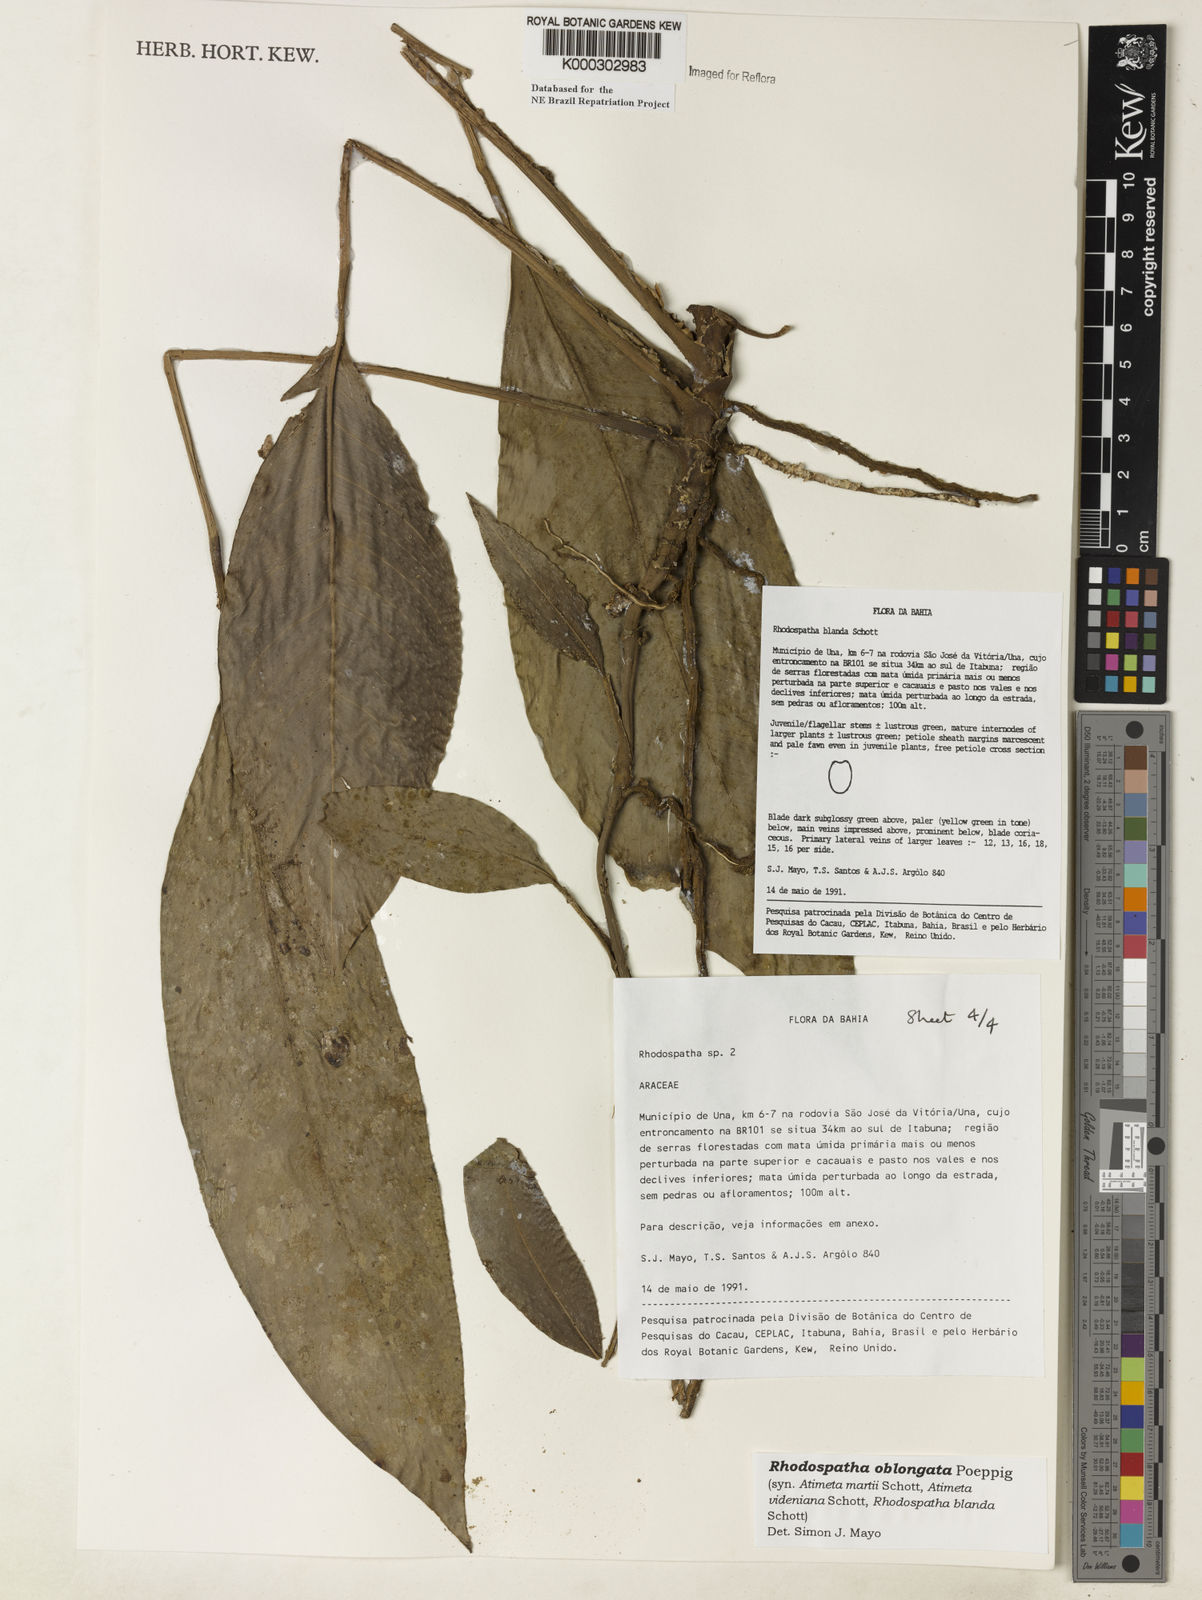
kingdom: Plantae
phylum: Tracheophyta
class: Liliopsida
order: Alismatales
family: Araceae
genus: Rhodospatha
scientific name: Rhodospatha oblongata
